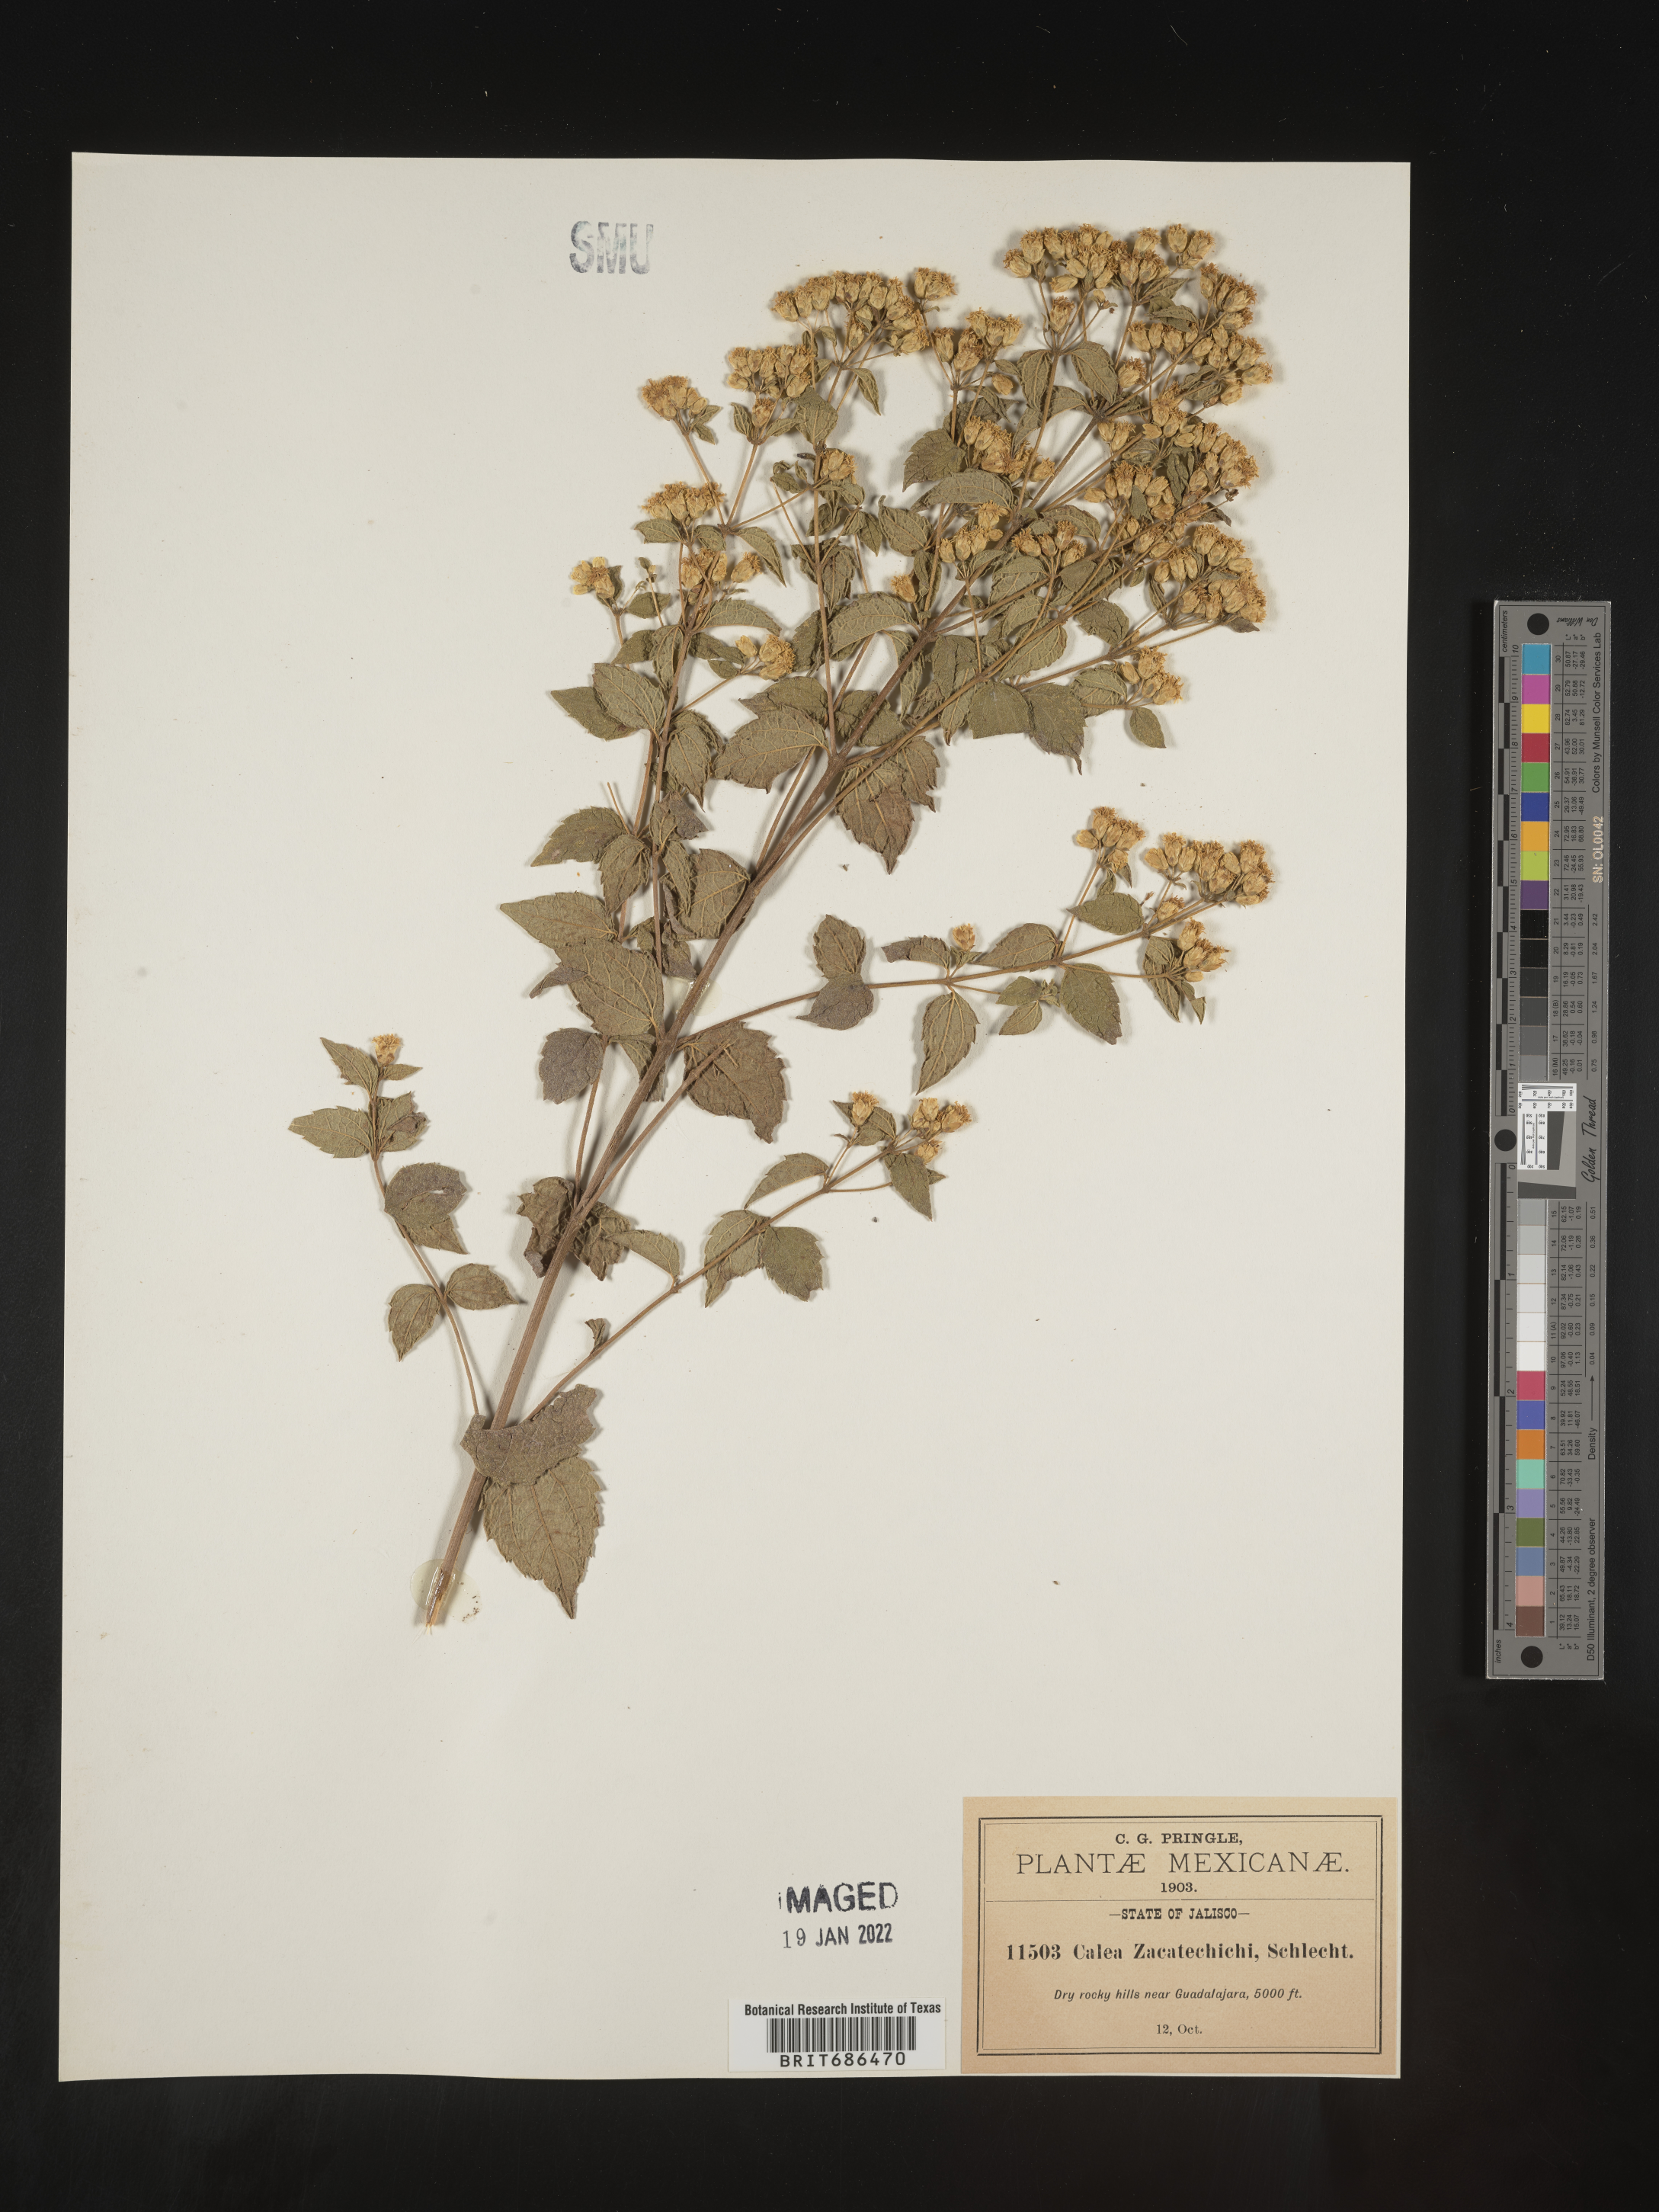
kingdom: Plantae
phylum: Tracheophyta
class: Magnoliopsida
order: Asterales
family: Asteraceae
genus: Calea
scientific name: Calea trichotoma
